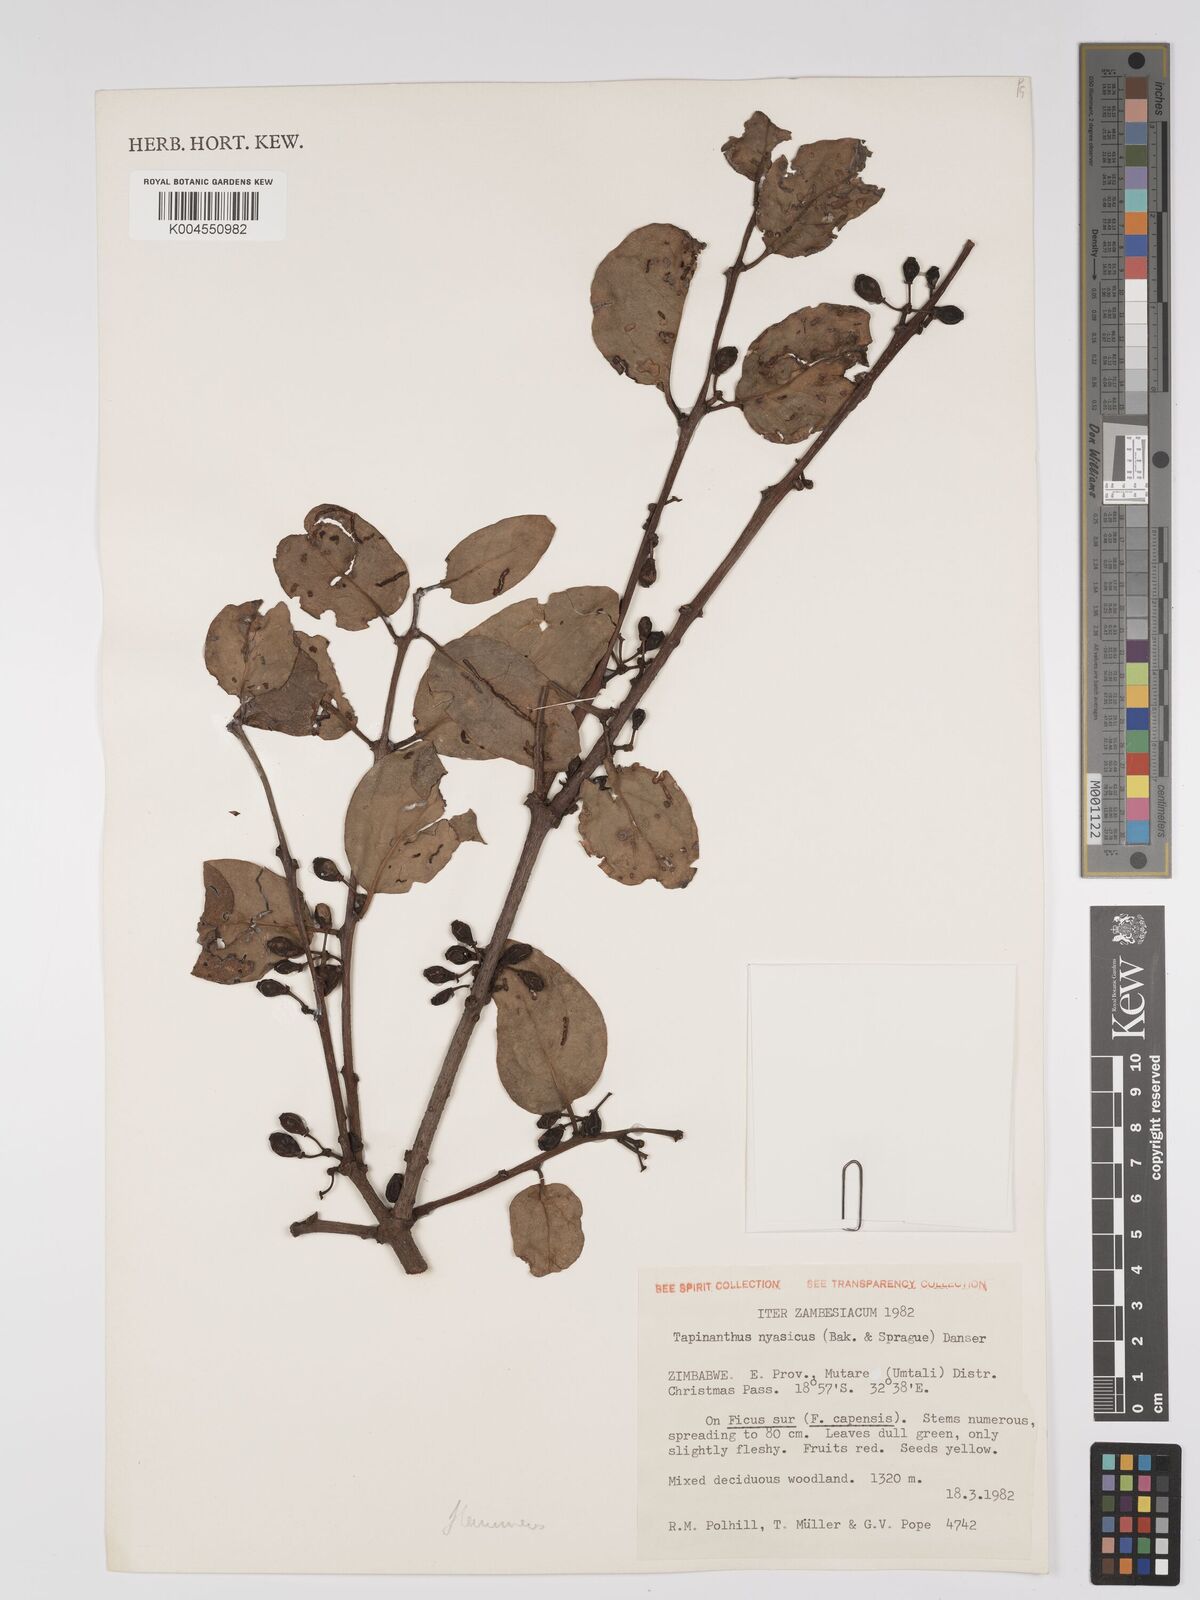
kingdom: Plantae
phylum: Tracheophyta
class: Magnoliopsida
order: Santalales
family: Loranthaceae
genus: Agelanthus
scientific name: Agelanthus flammeus
